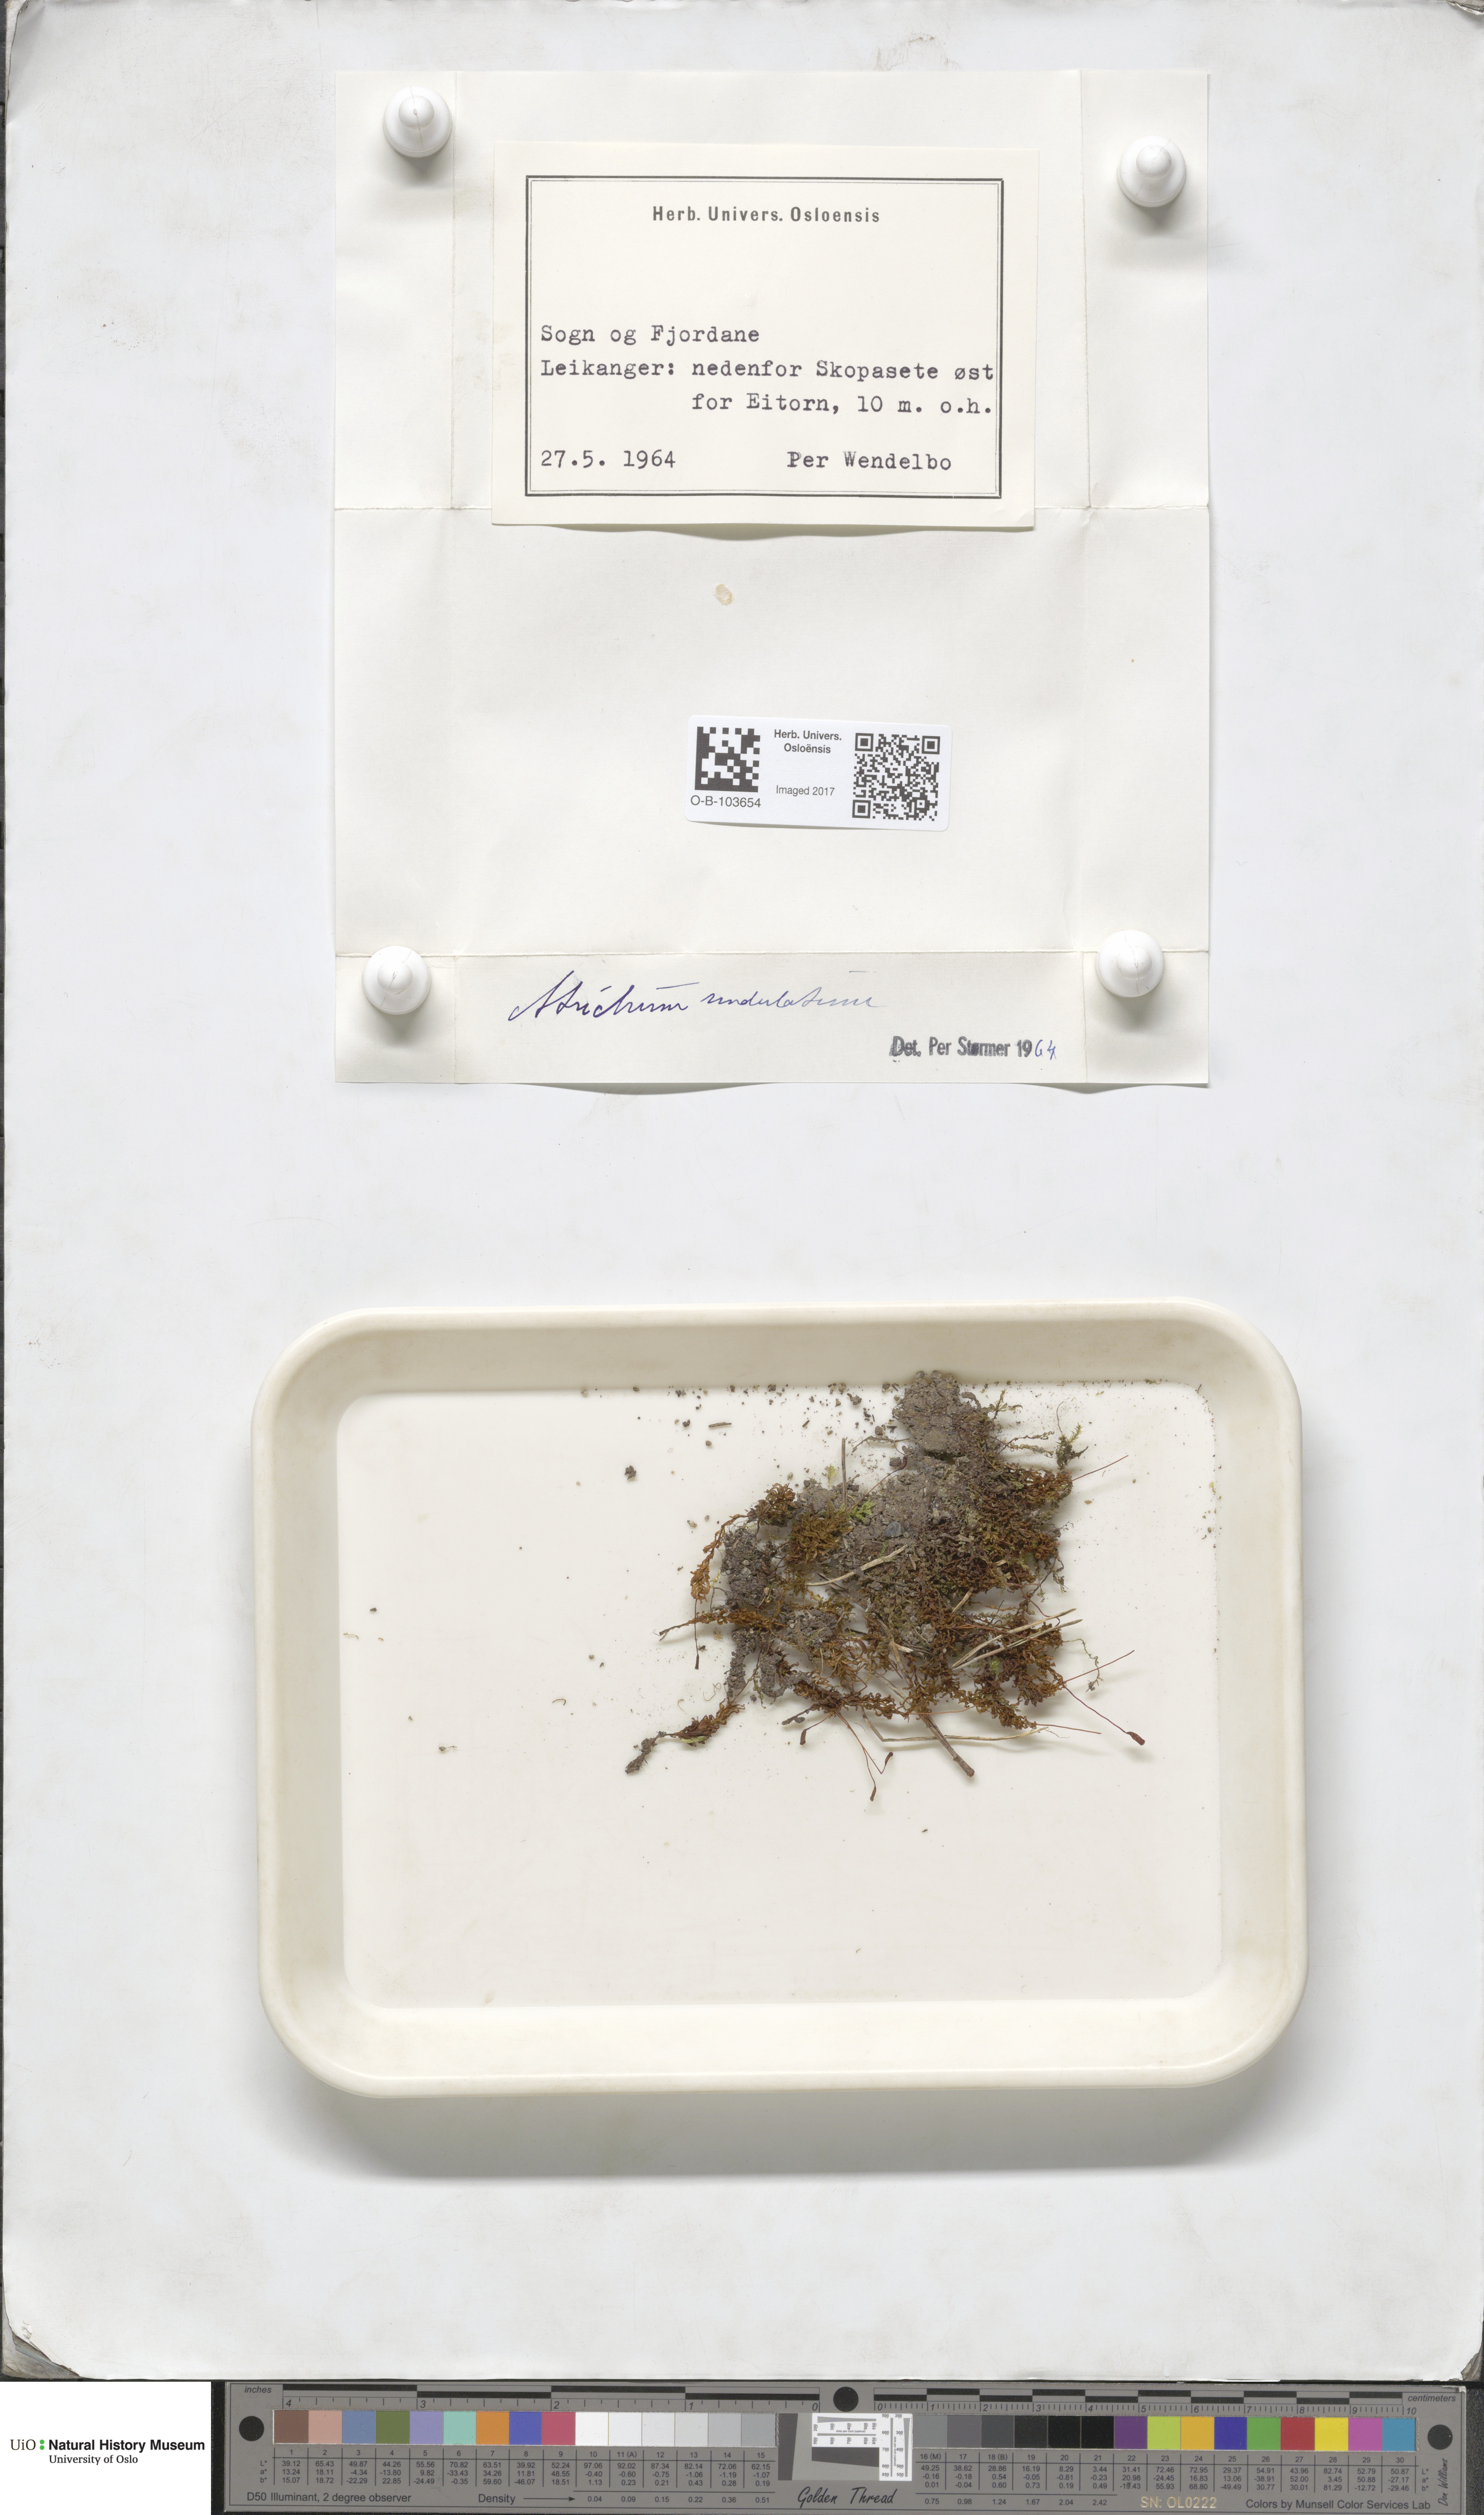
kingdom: Plantae
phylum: Bryophyta
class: Polytrichopsida
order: Polytrichales
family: Polytrichaceae
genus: Atrichum
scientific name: Atrichum undulatum
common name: Common smoothcap
